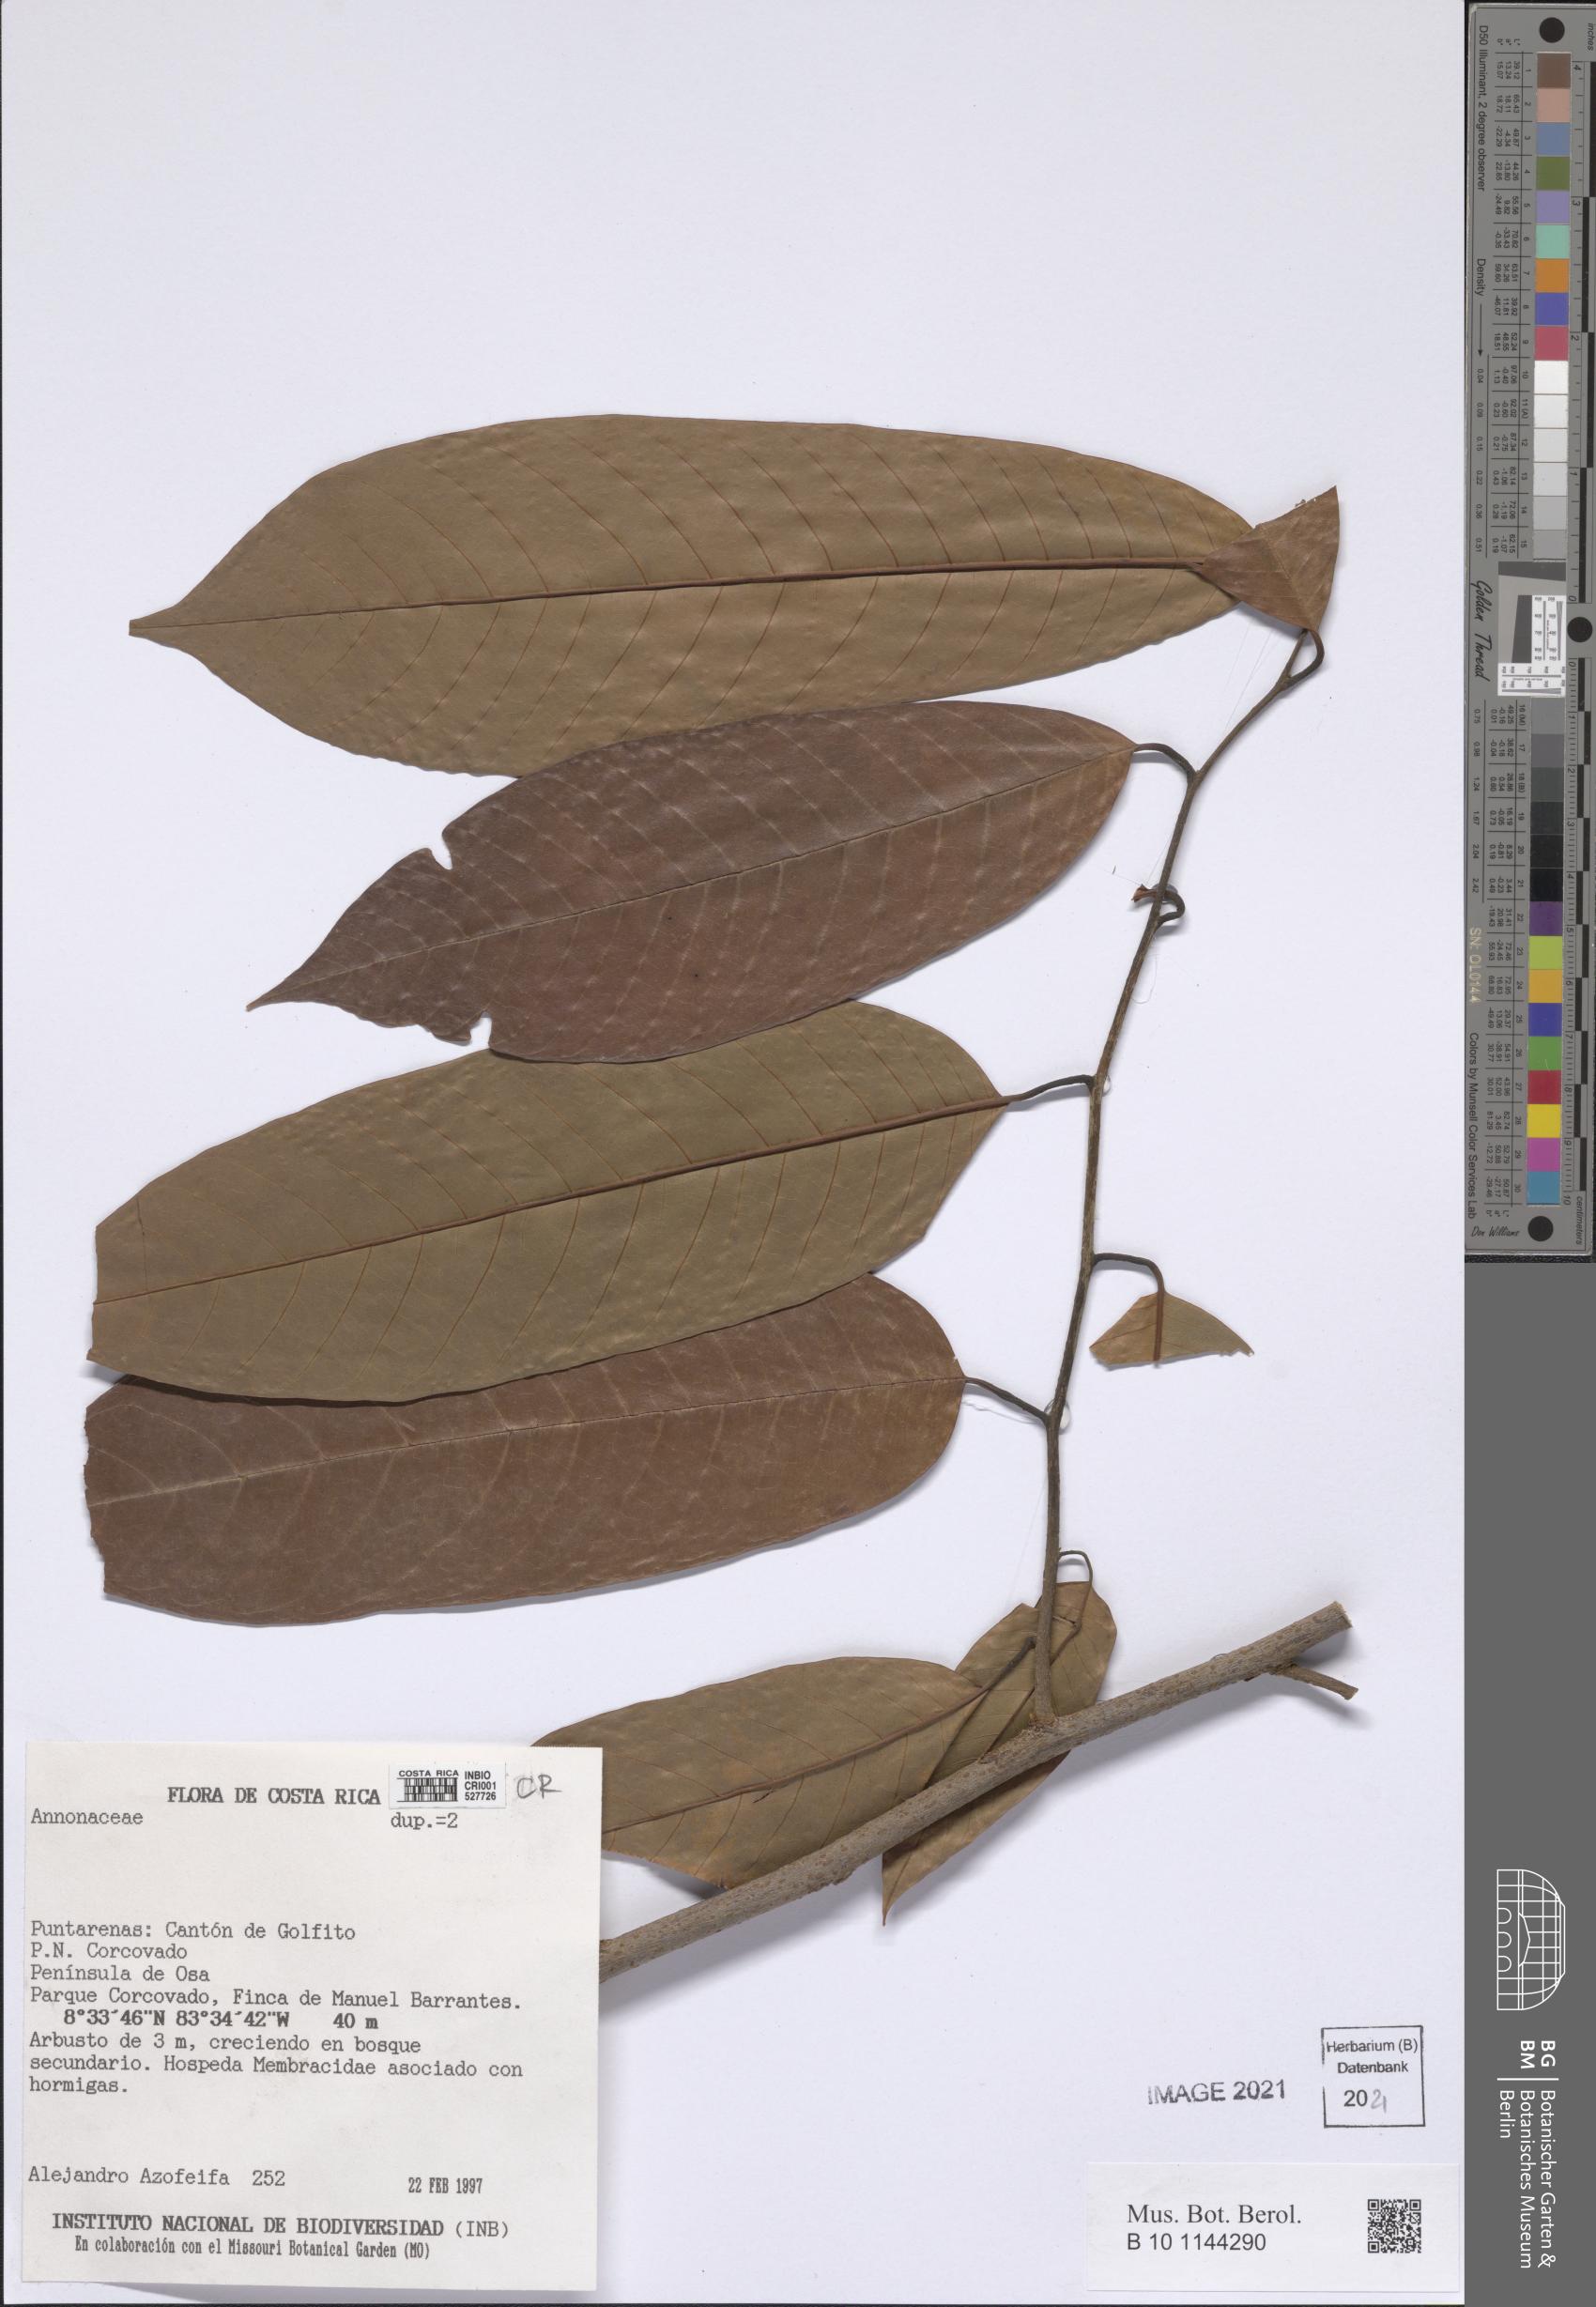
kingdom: Plantae
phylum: Tracheophyta
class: Magnoliopsida
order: Magnoliales
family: Annonaceae
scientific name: Annonaceae
